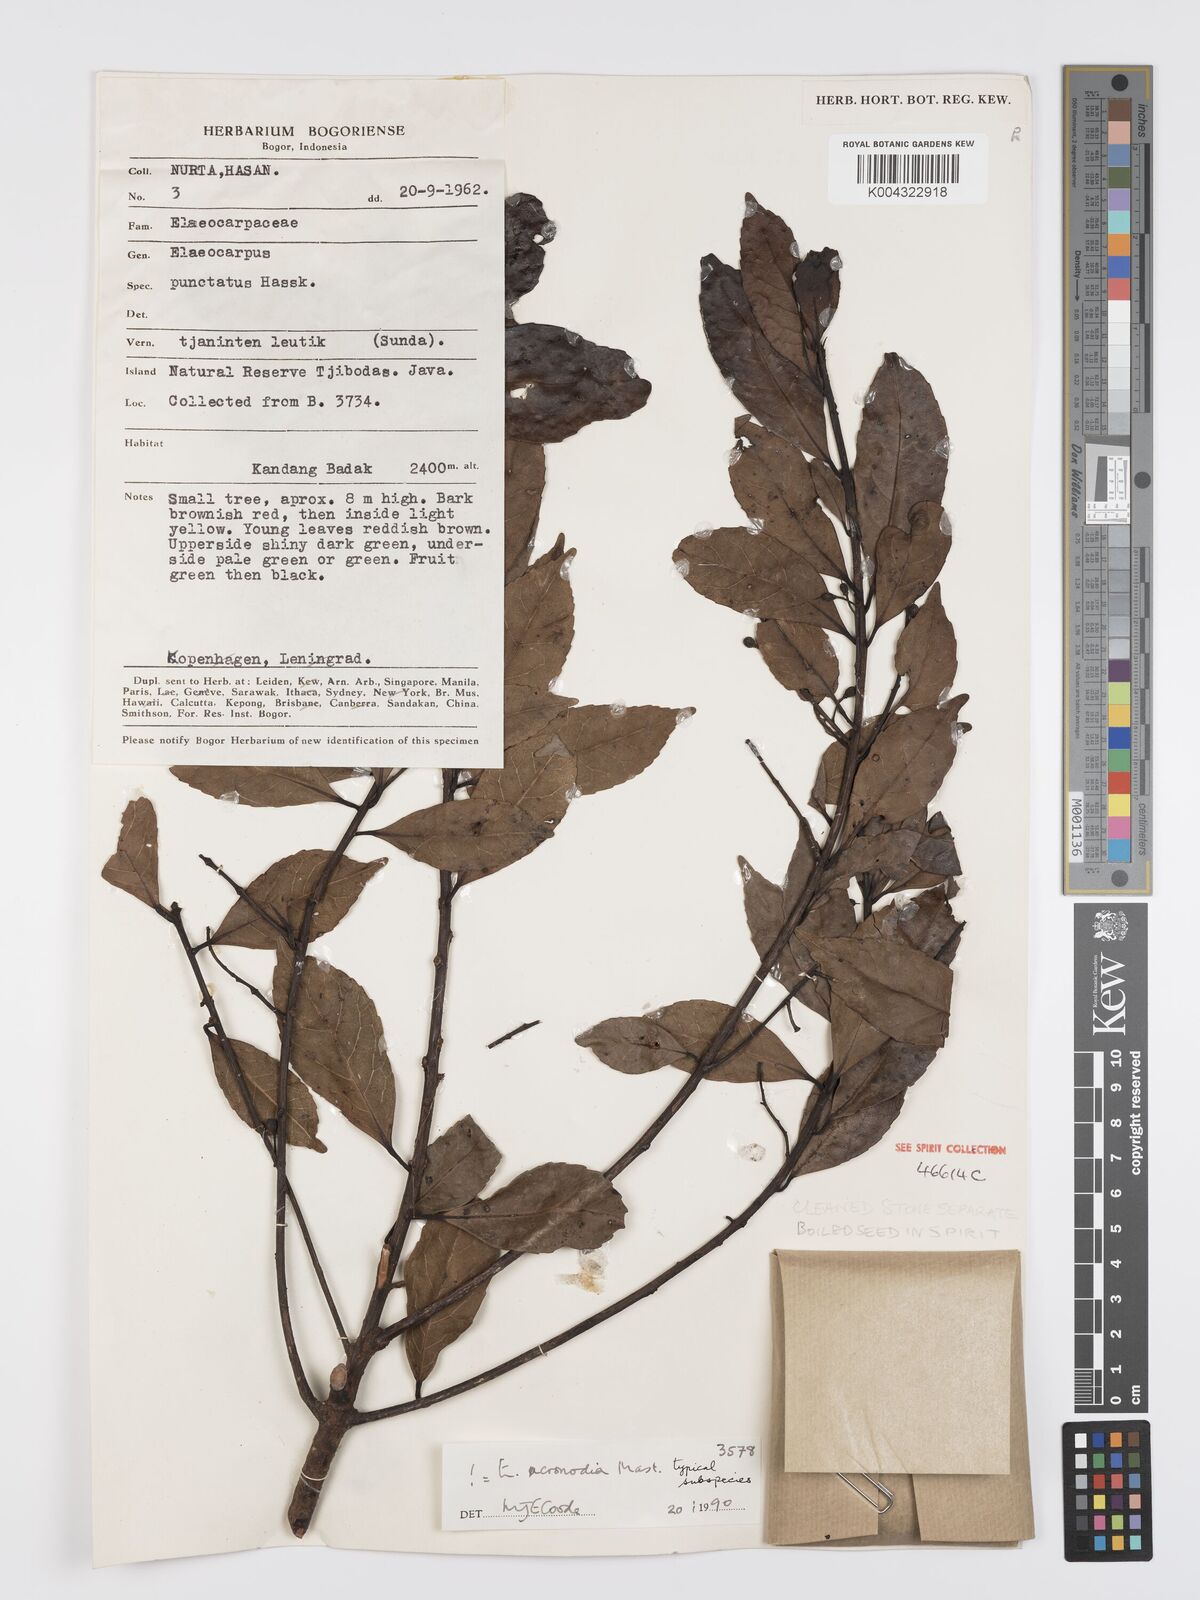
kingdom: Plantae
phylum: Tracheophyta
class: Magnoliopsida
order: Oxalidales
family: Elaeocarpaceae
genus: Elaeocarpus
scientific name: Elaeocarpus acronodia
